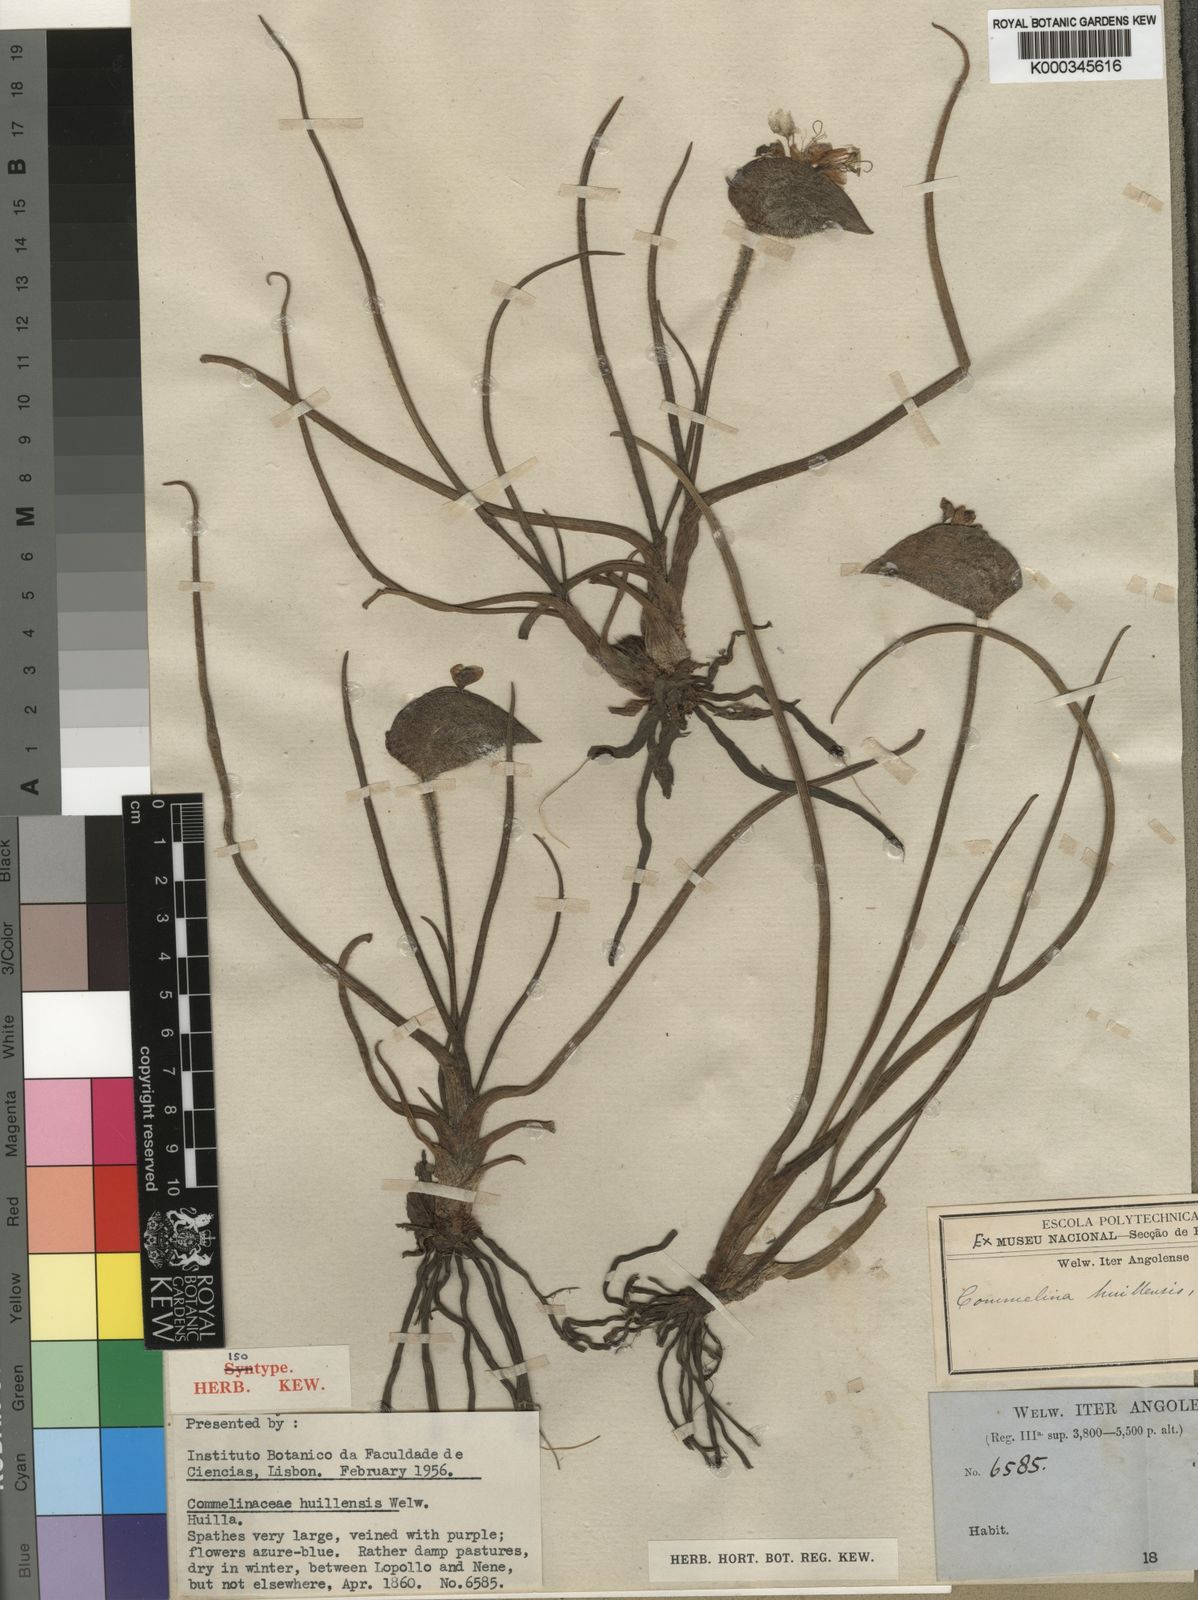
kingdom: Plantae
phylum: Tracheophyta
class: Liliopsida
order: Commelinales
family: Commelinaceae
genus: Commelina
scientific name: Commelina huillensis
